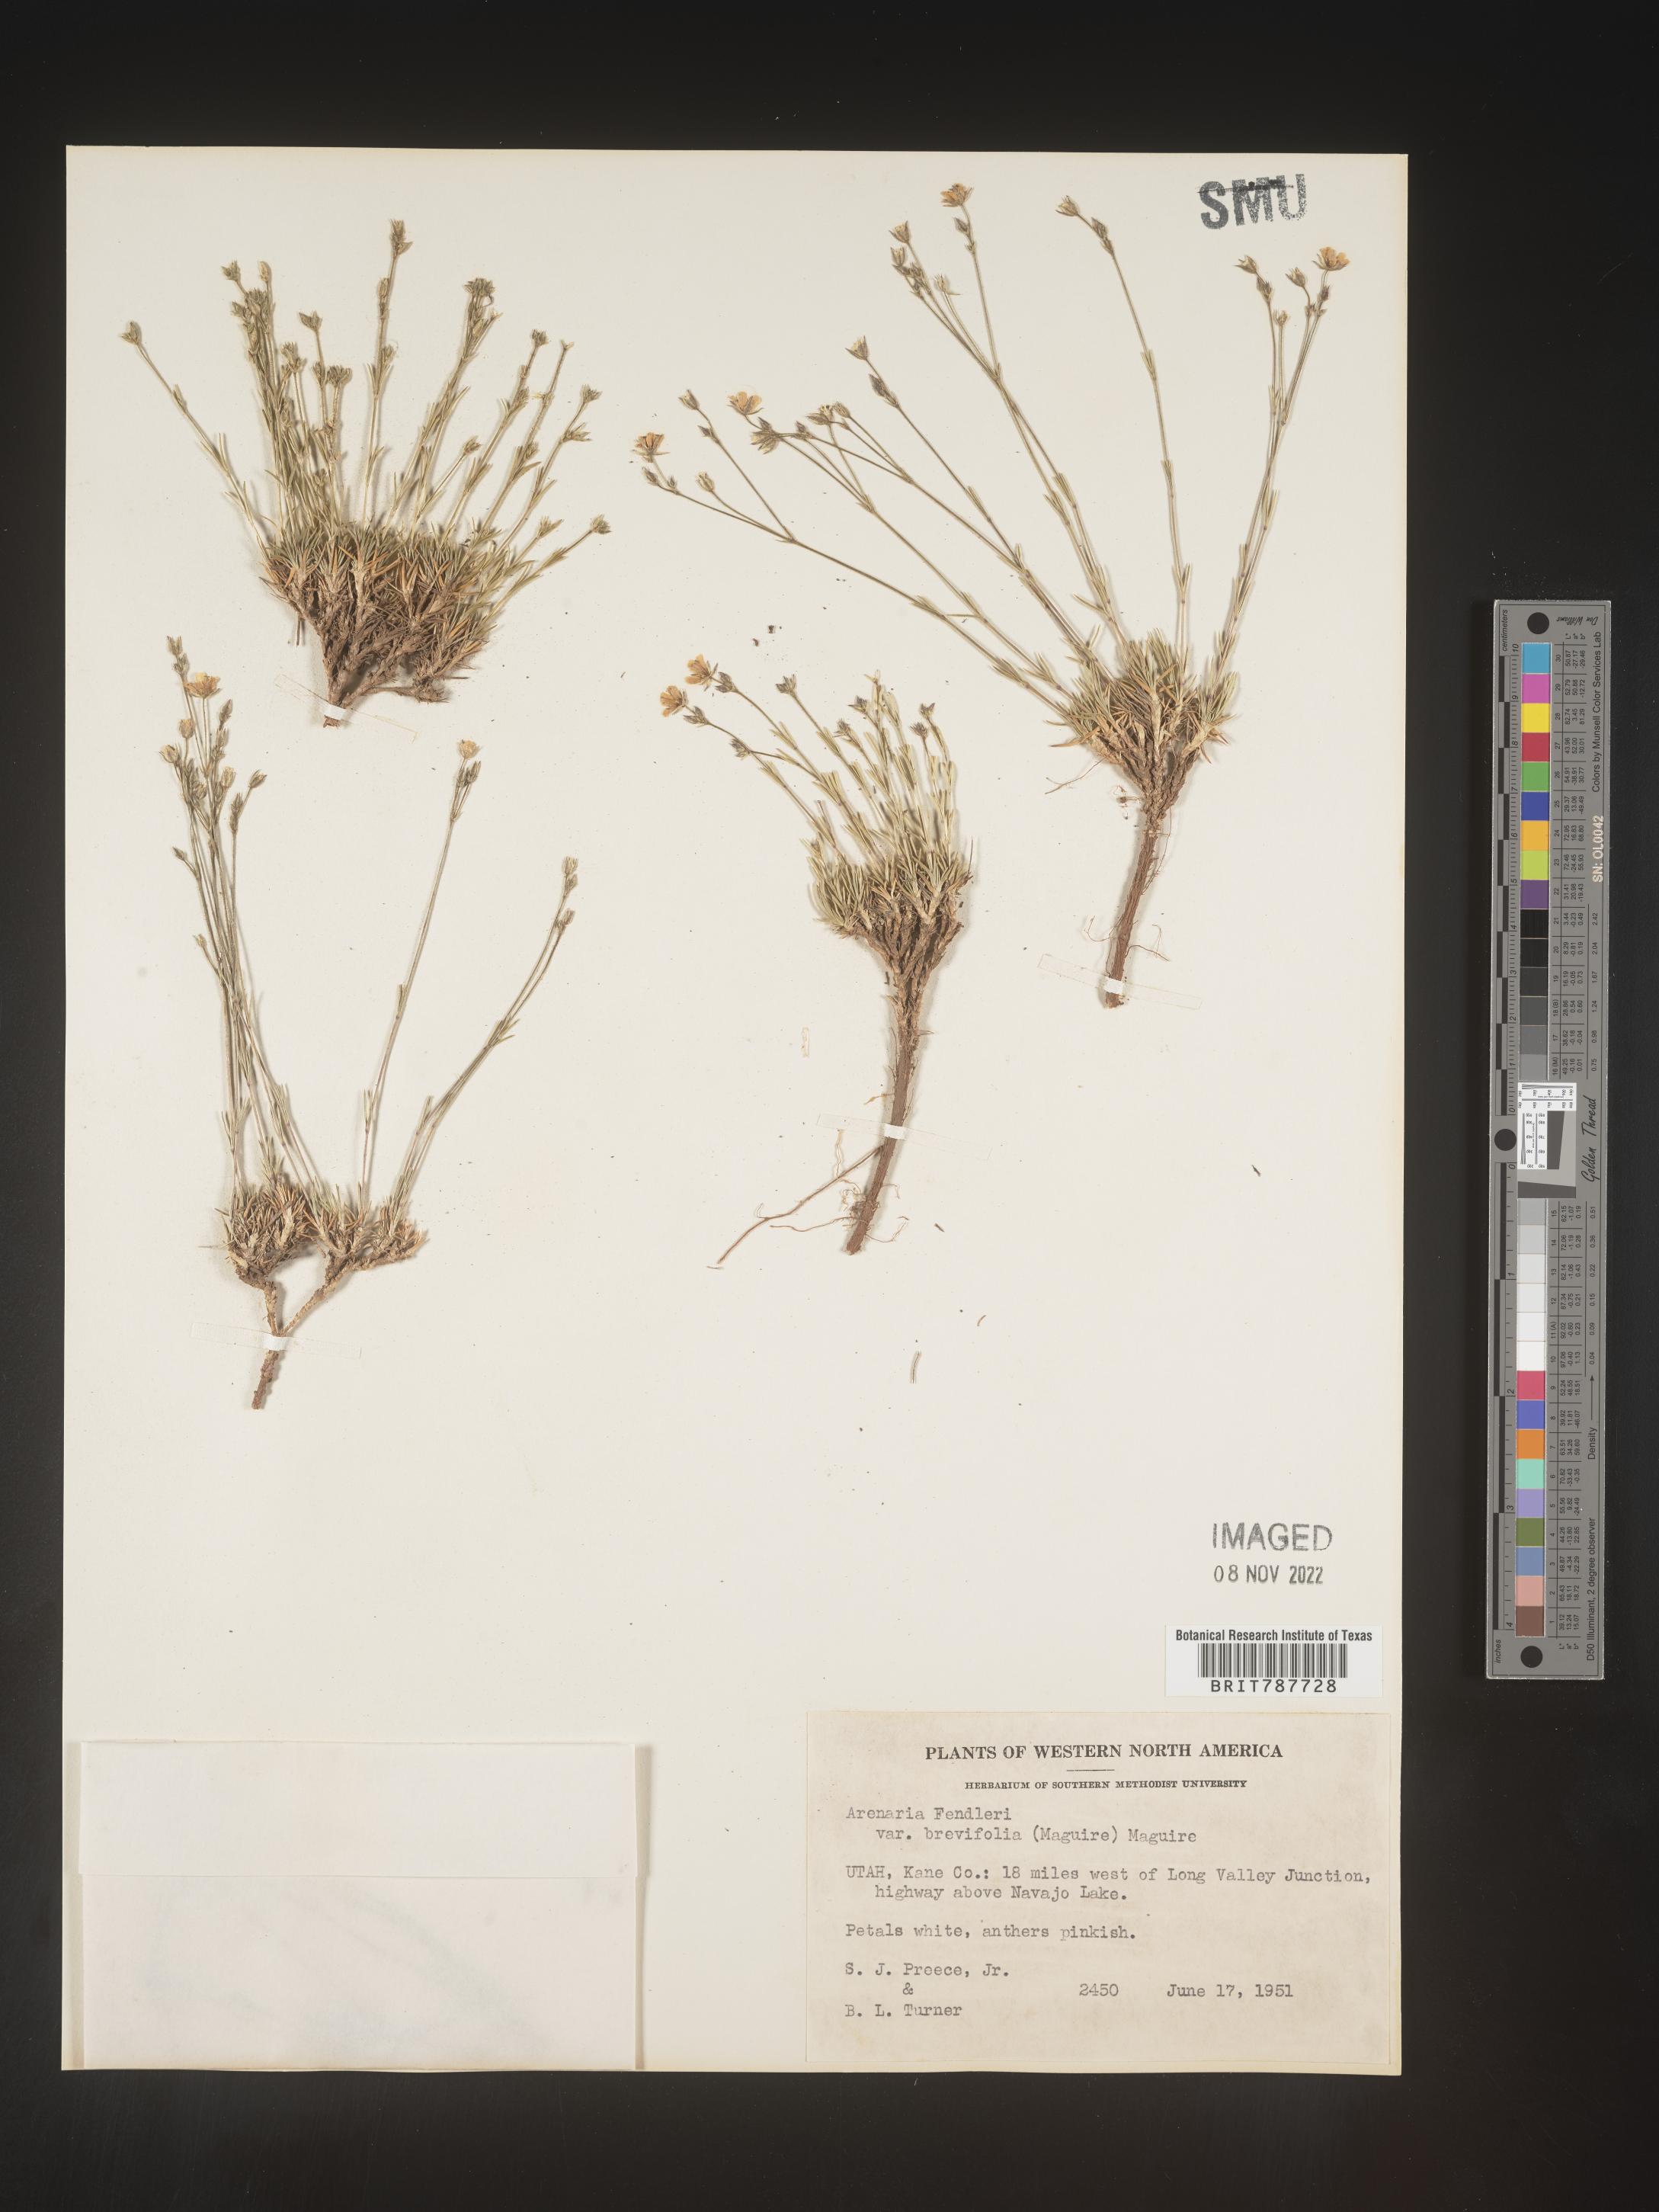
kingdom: Plantae
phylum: Tracheophyta
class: Magnoliopsida
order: Caryophyllales
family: Caryophyllaceae
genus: Arenaria
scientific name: Arenaria
